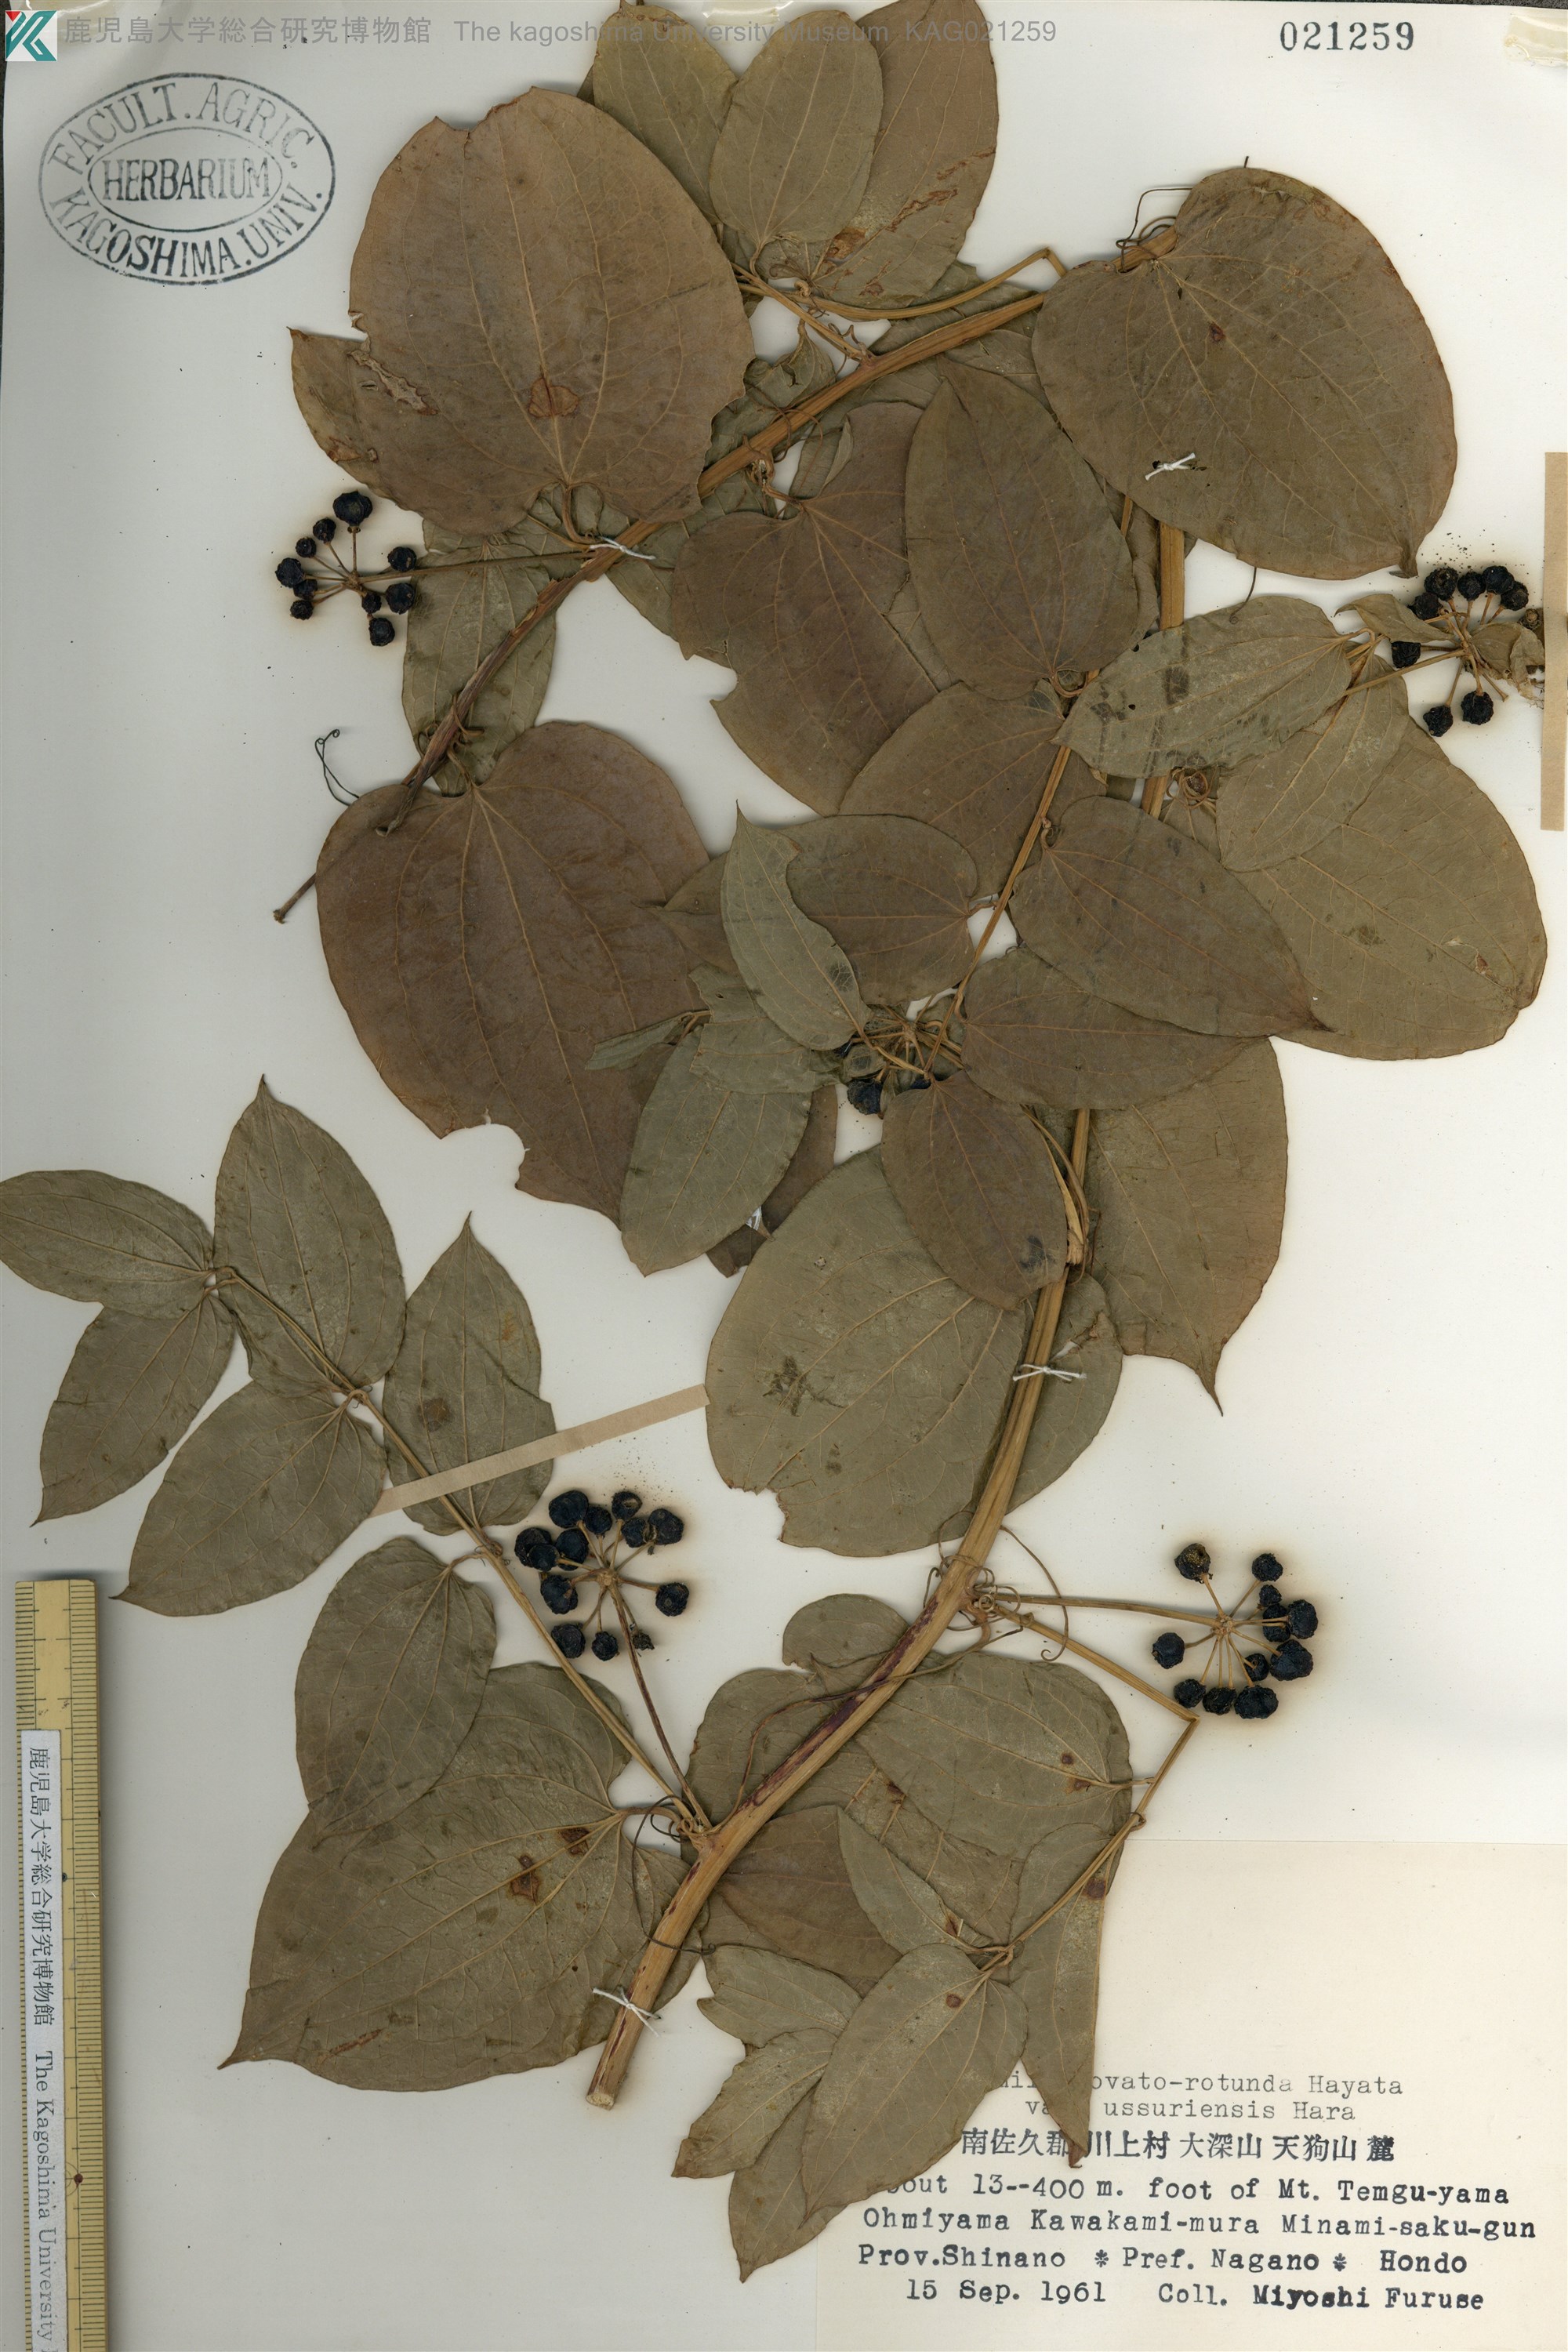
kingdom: Plantae
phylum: Tracheophyta
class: Liliopsida
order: Liliales
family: Smilacaceae
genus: Smilax
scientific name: Smilax riparia
